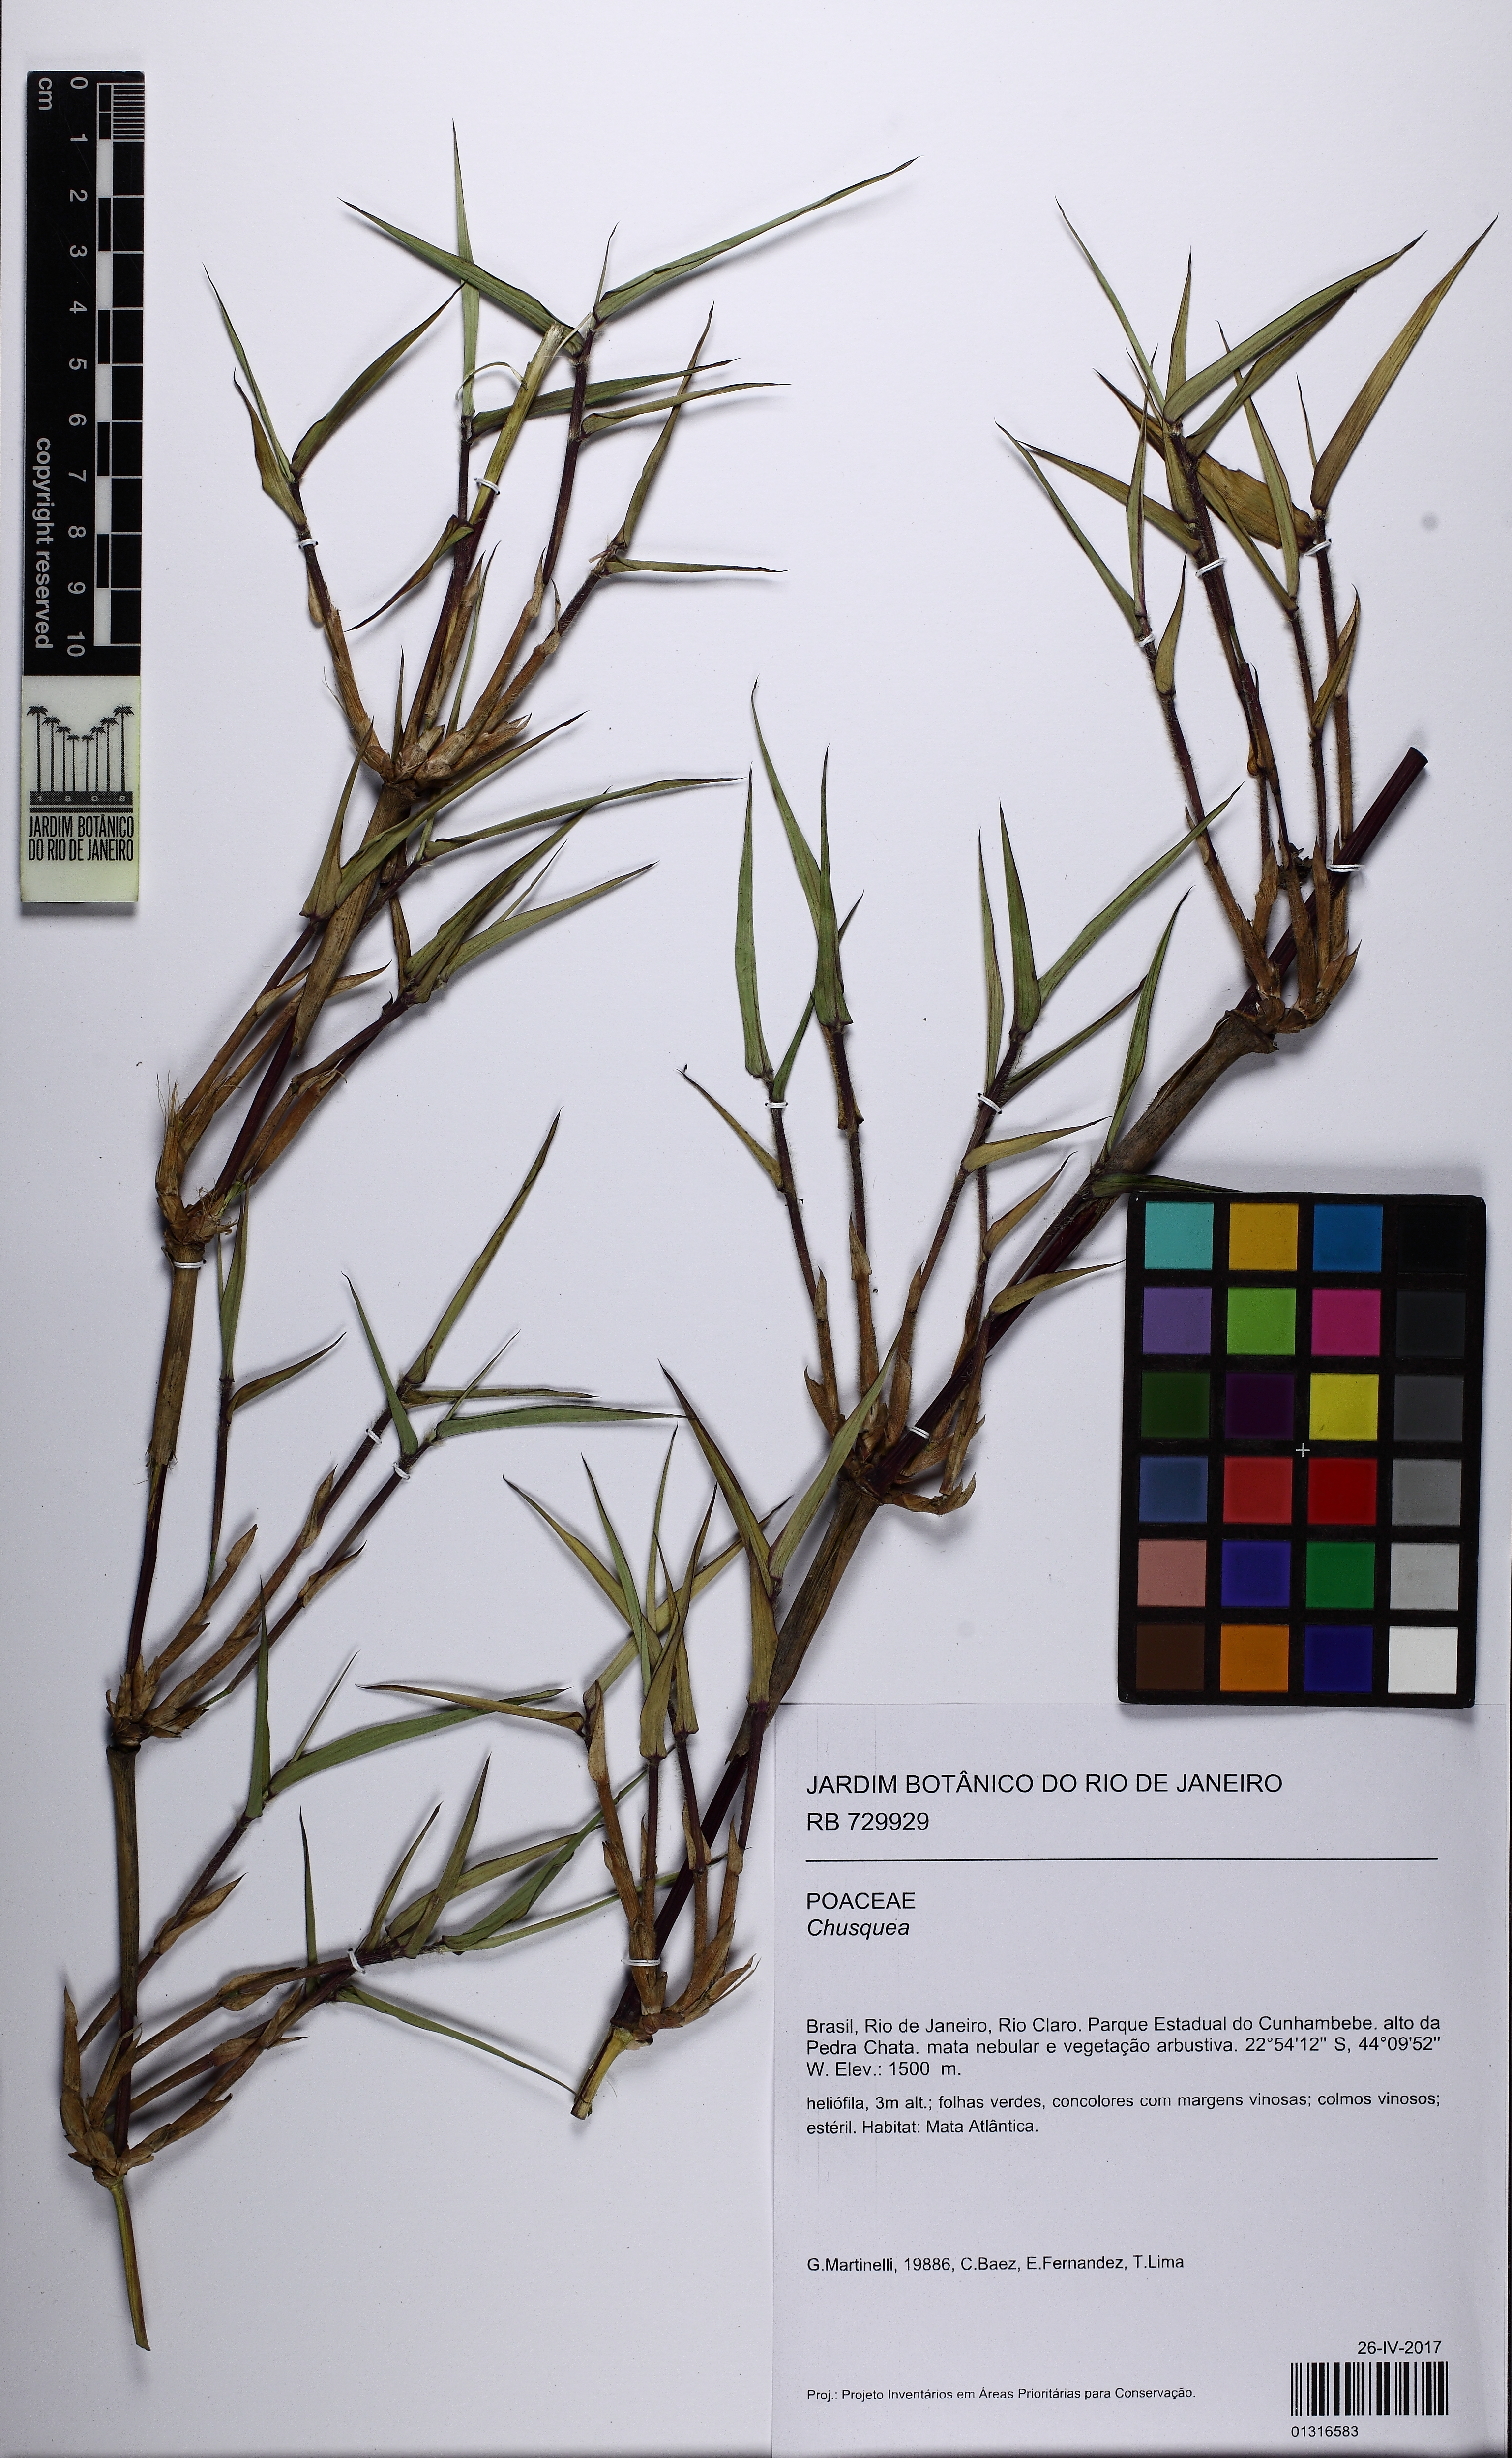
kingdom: Plantae
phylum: Tracheophyta
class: Liliopsida
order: Poales
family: Poaceae
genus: Chusquea
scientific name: Chusquea anelythra
